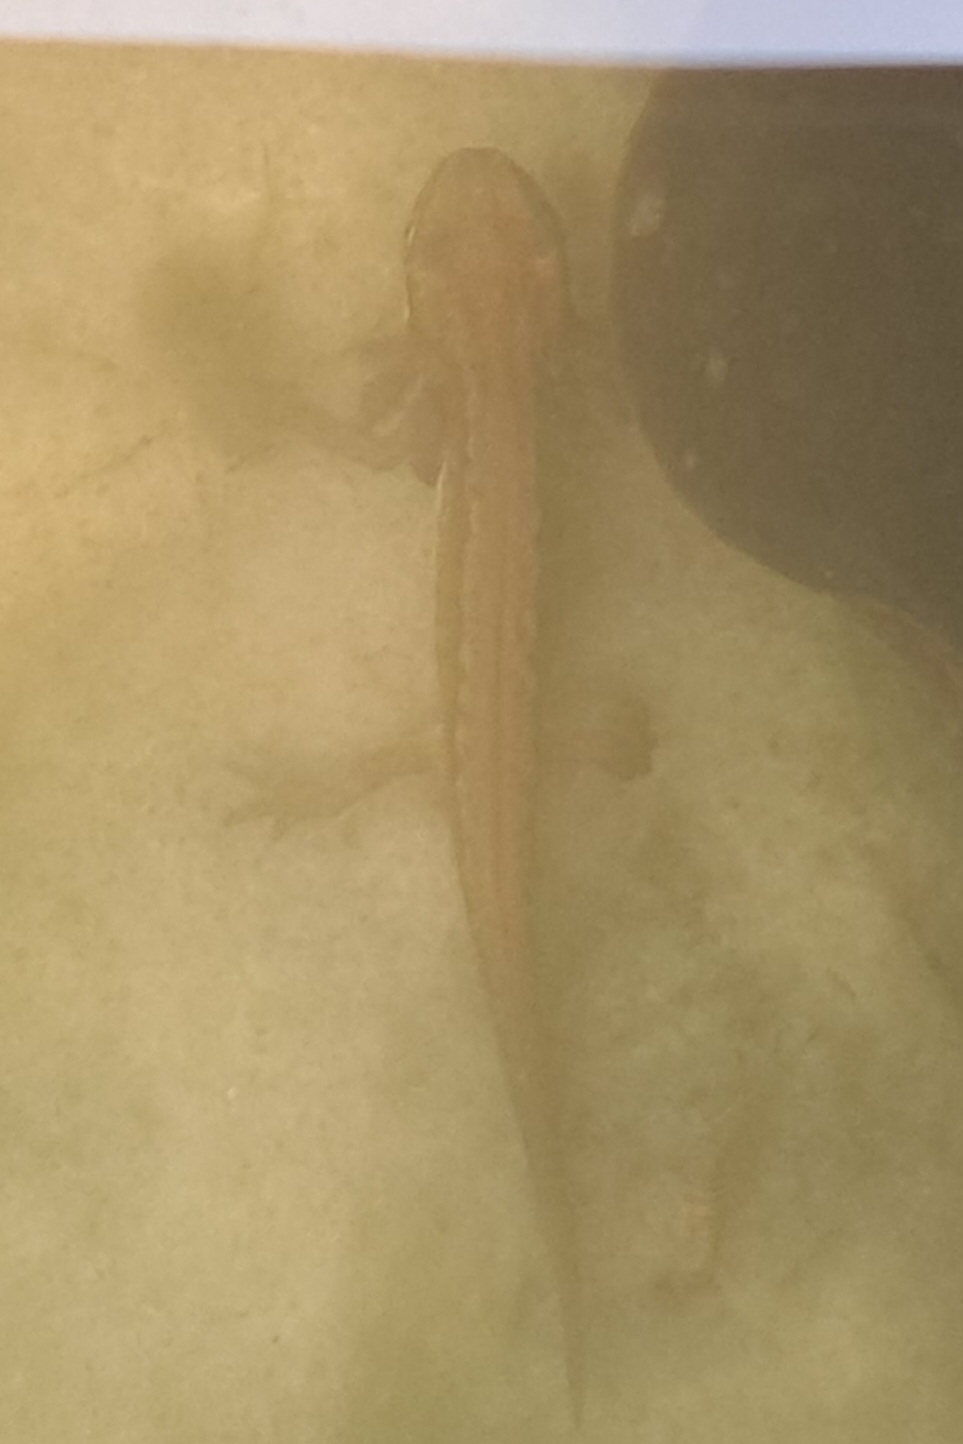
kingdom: Animalia
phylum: Chordata
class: Amphibia
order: Caudata
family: Salamandridae
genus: Lissotriton
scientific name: Lissotriton vulgaris
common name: Lille vandsalamander
